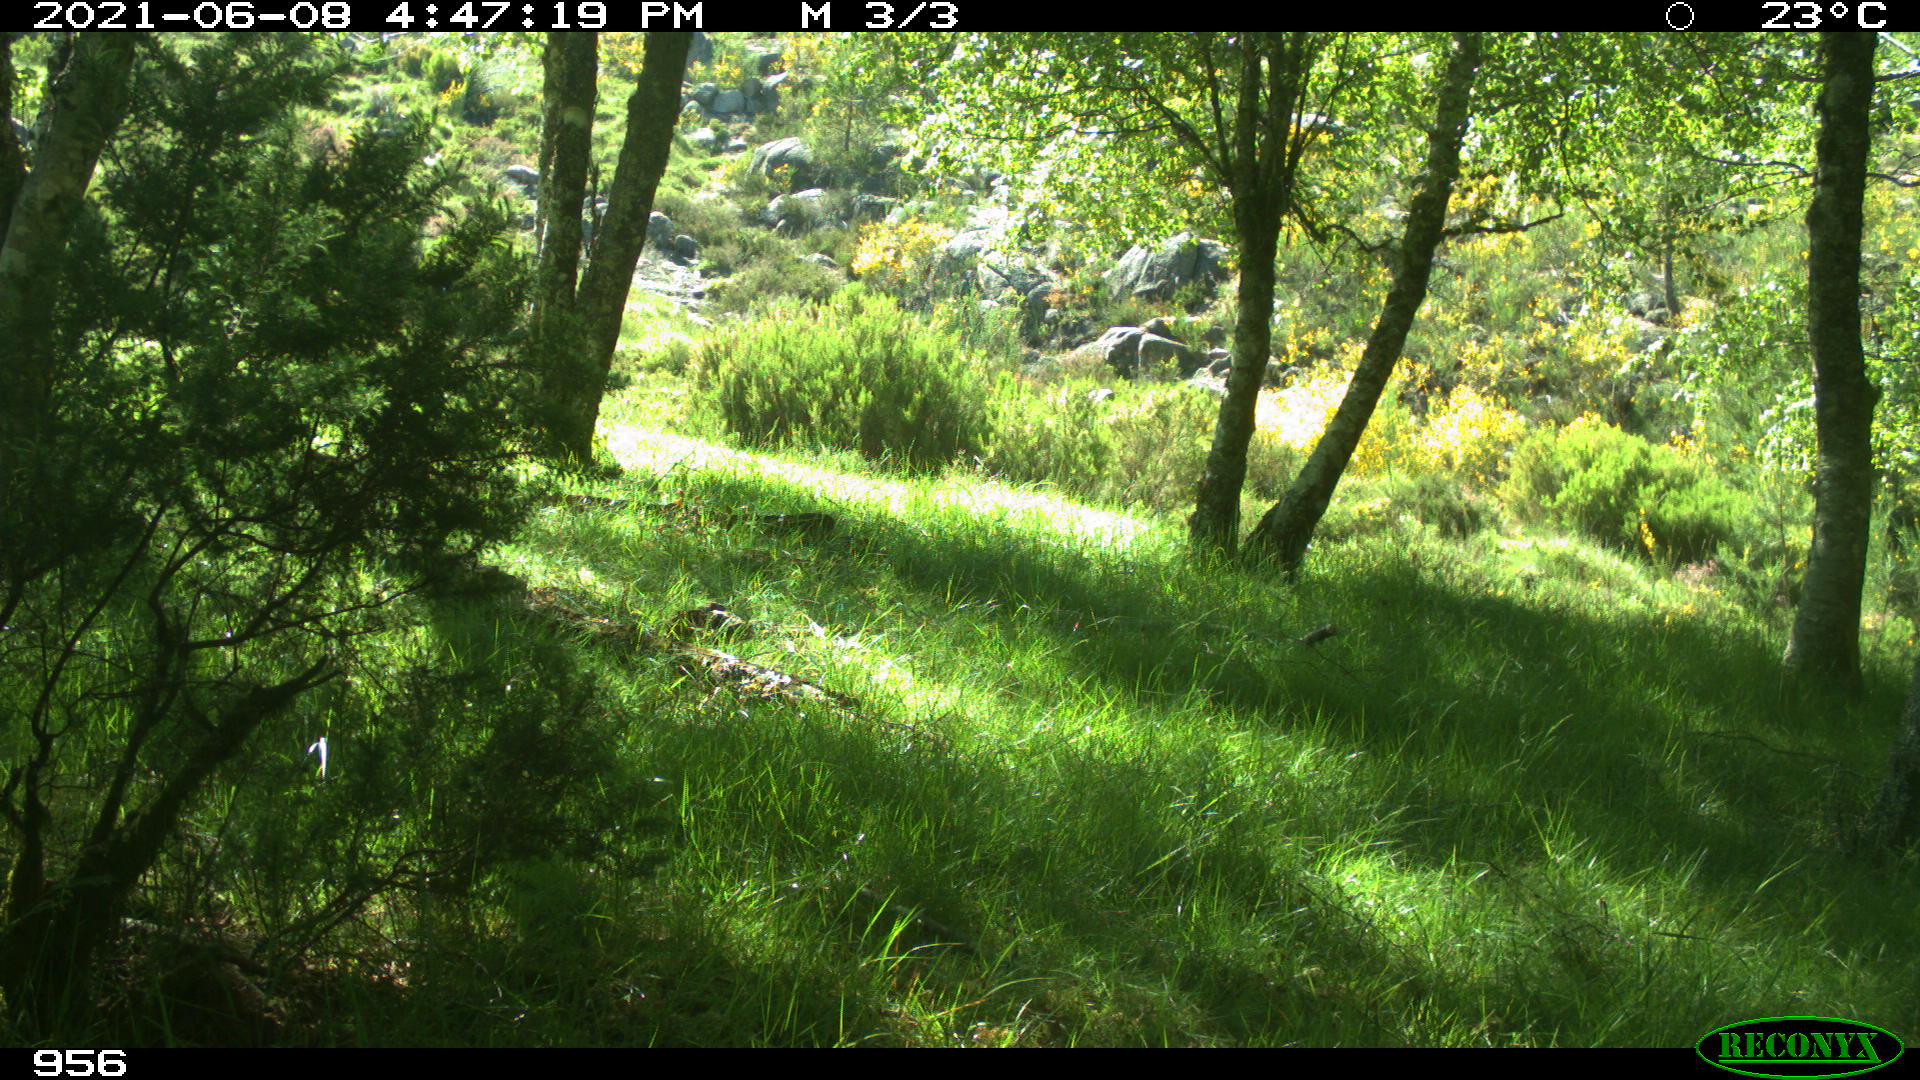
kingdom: Animalia
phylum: Chordata
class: Mammalia
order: Perissodactyla
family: Equidae
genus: Equus
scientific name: Equus caballus
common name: Horse
